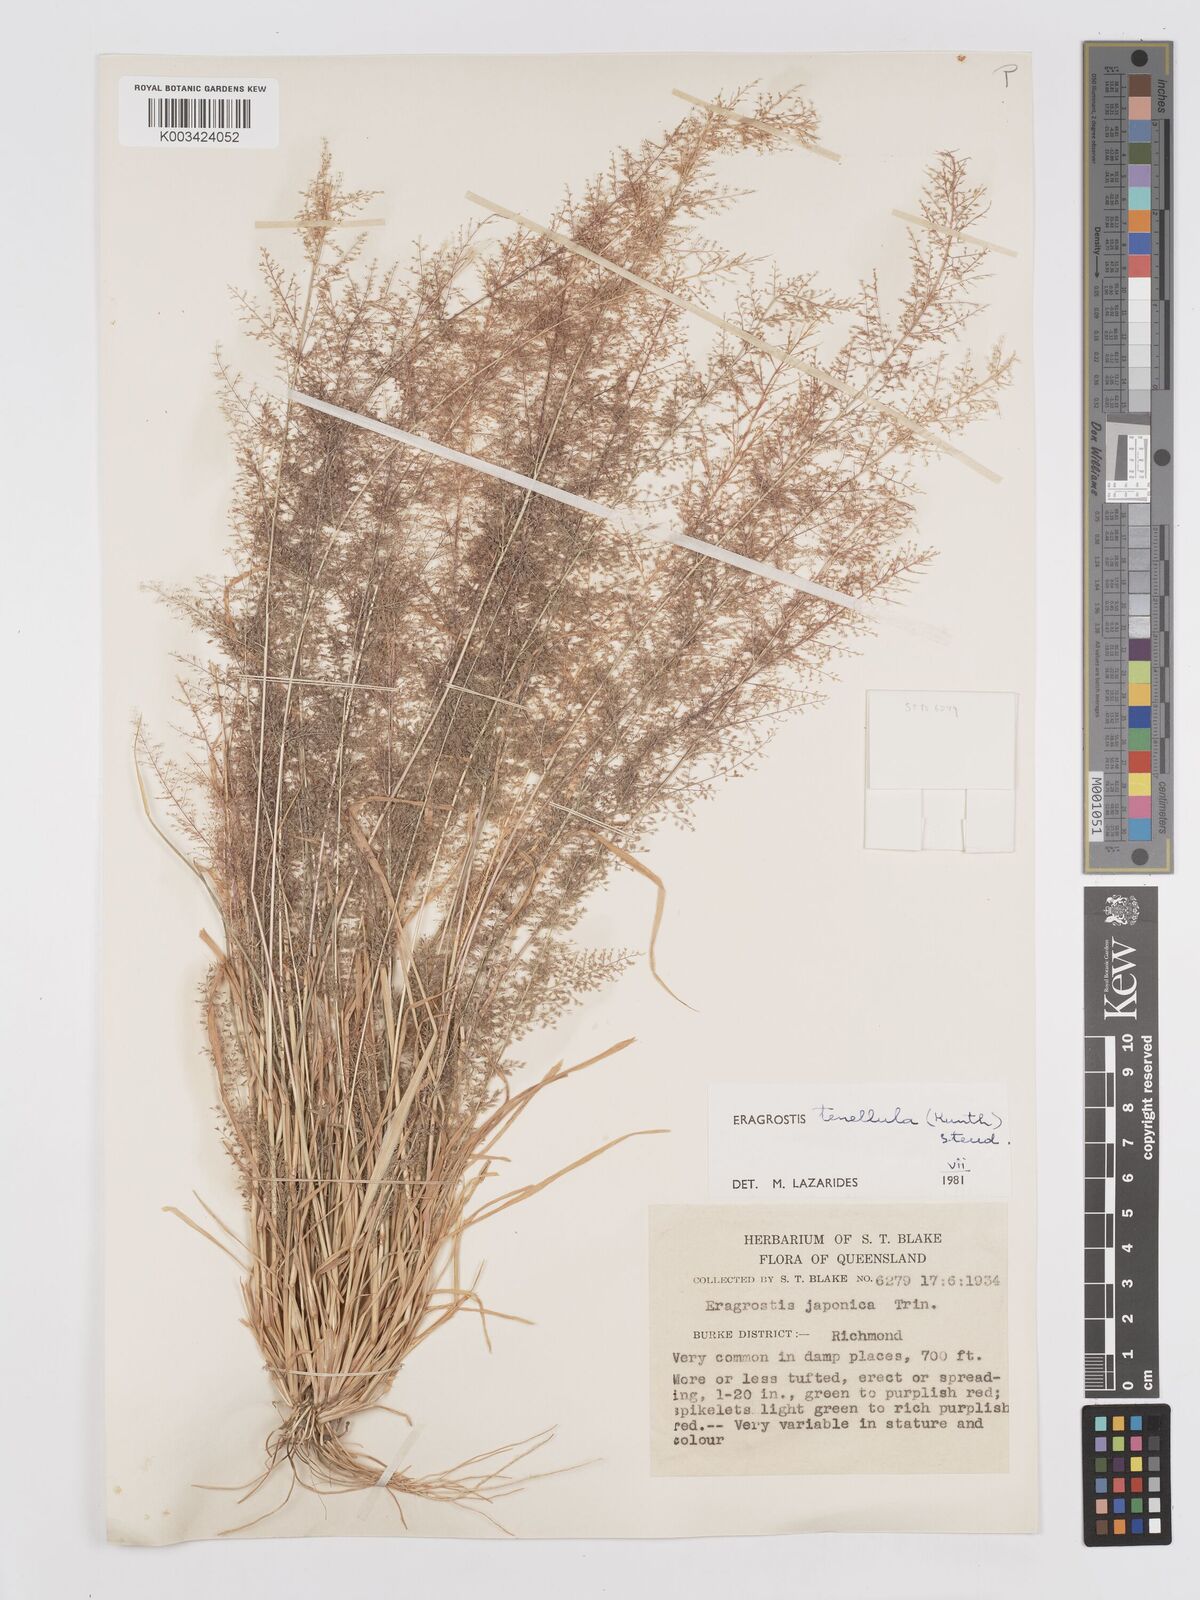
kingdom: Plantae
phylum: Tracheophyta
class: Liliopsida
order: Poales
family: Poaceae
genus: Eragrostis
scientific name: Eragrostis tenellula
